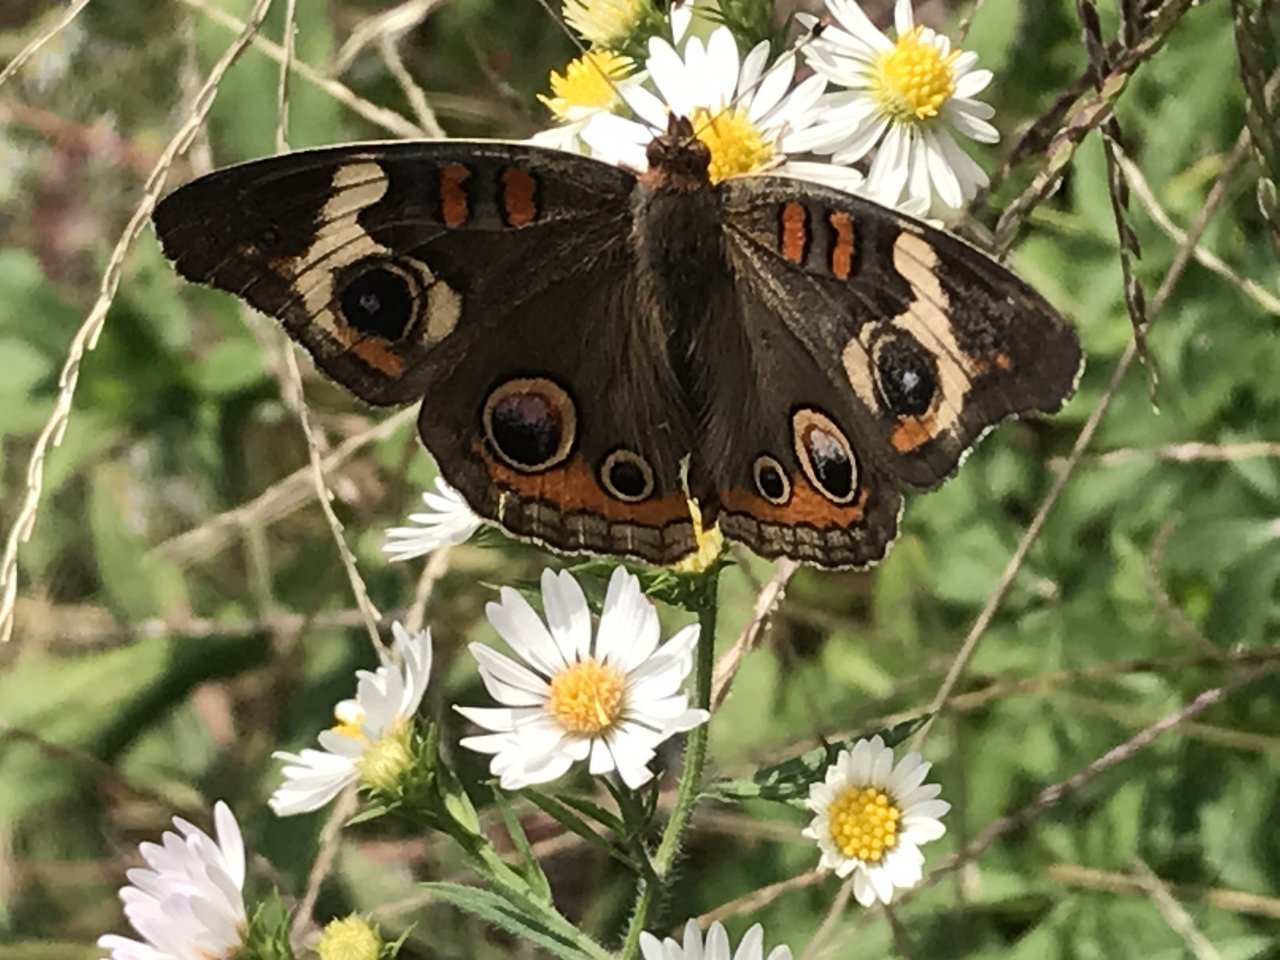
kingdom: Animalia
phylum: Arthropoda
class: Insecta
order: Lepidoptera
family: Nymphalidae
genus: Junonia
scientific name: Junonia coenia
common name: Common Buckeye
